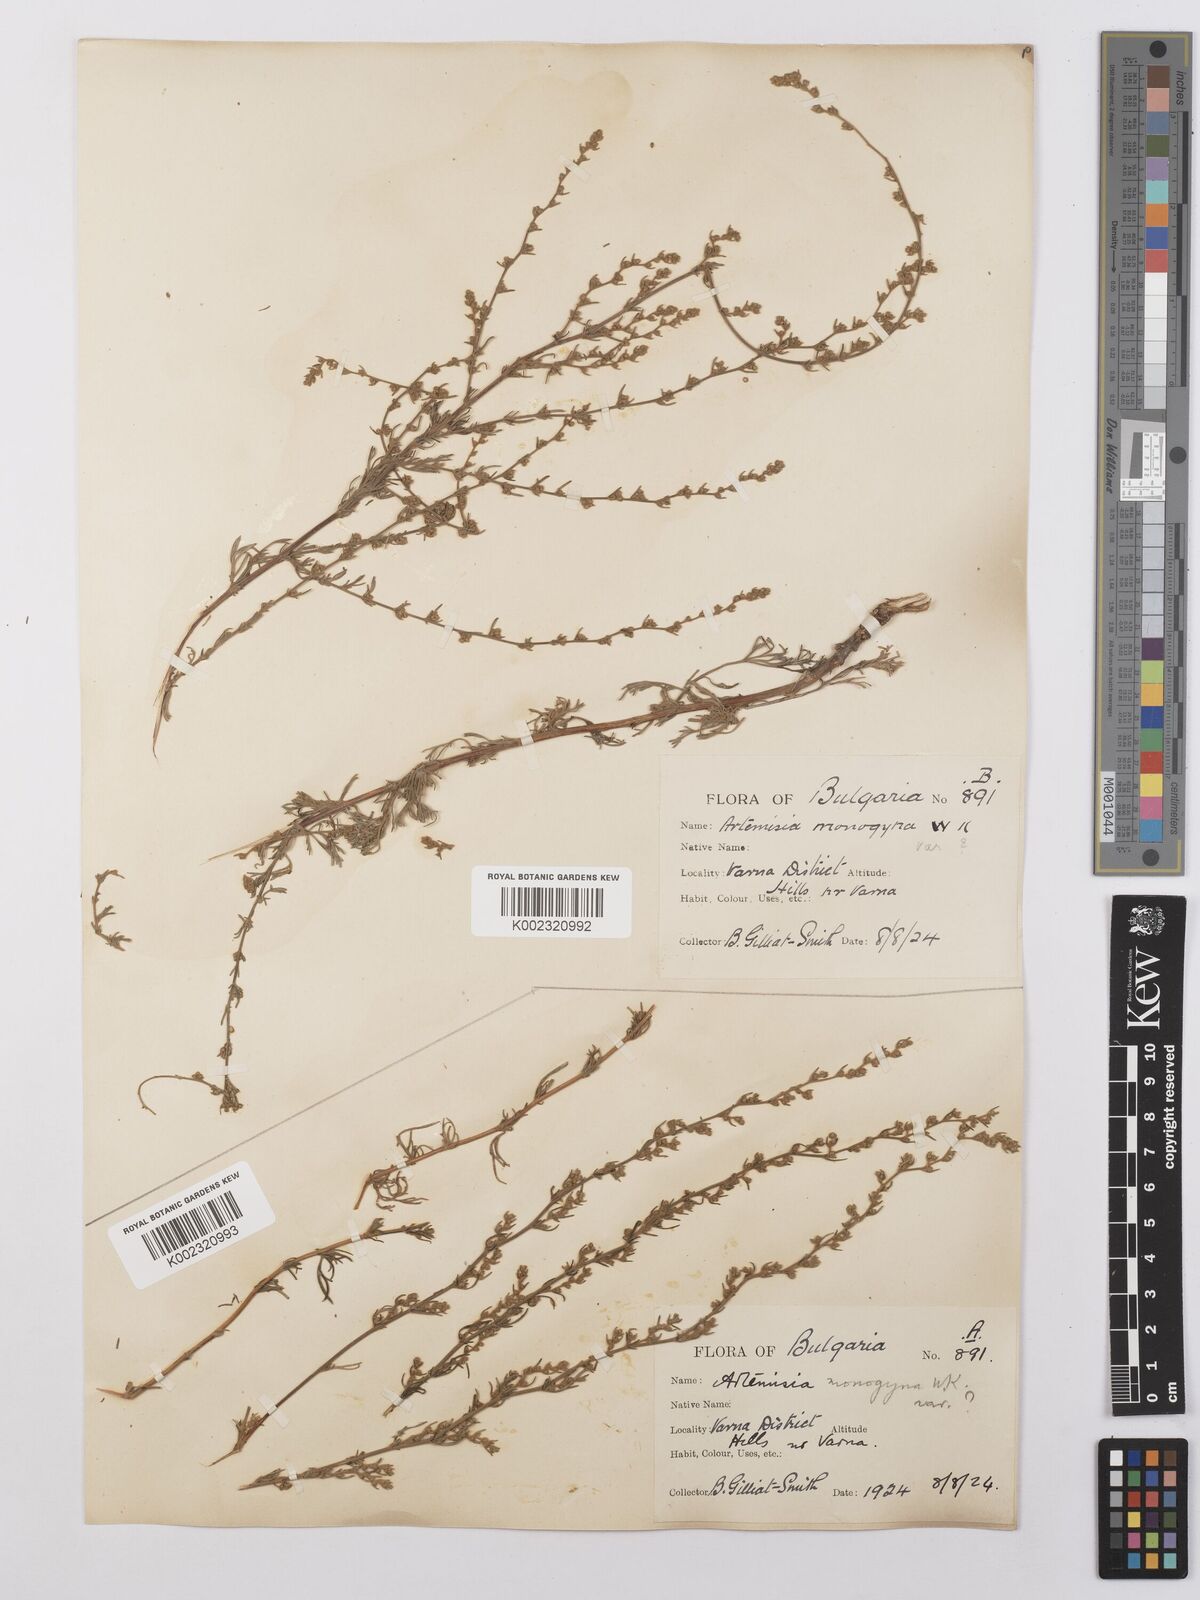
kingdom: Plantae
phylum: Tracheophyta
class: Magnoliopsida
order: Asterales
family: Asteraceae
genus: Artemisia
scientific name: Artemisia santonicum
